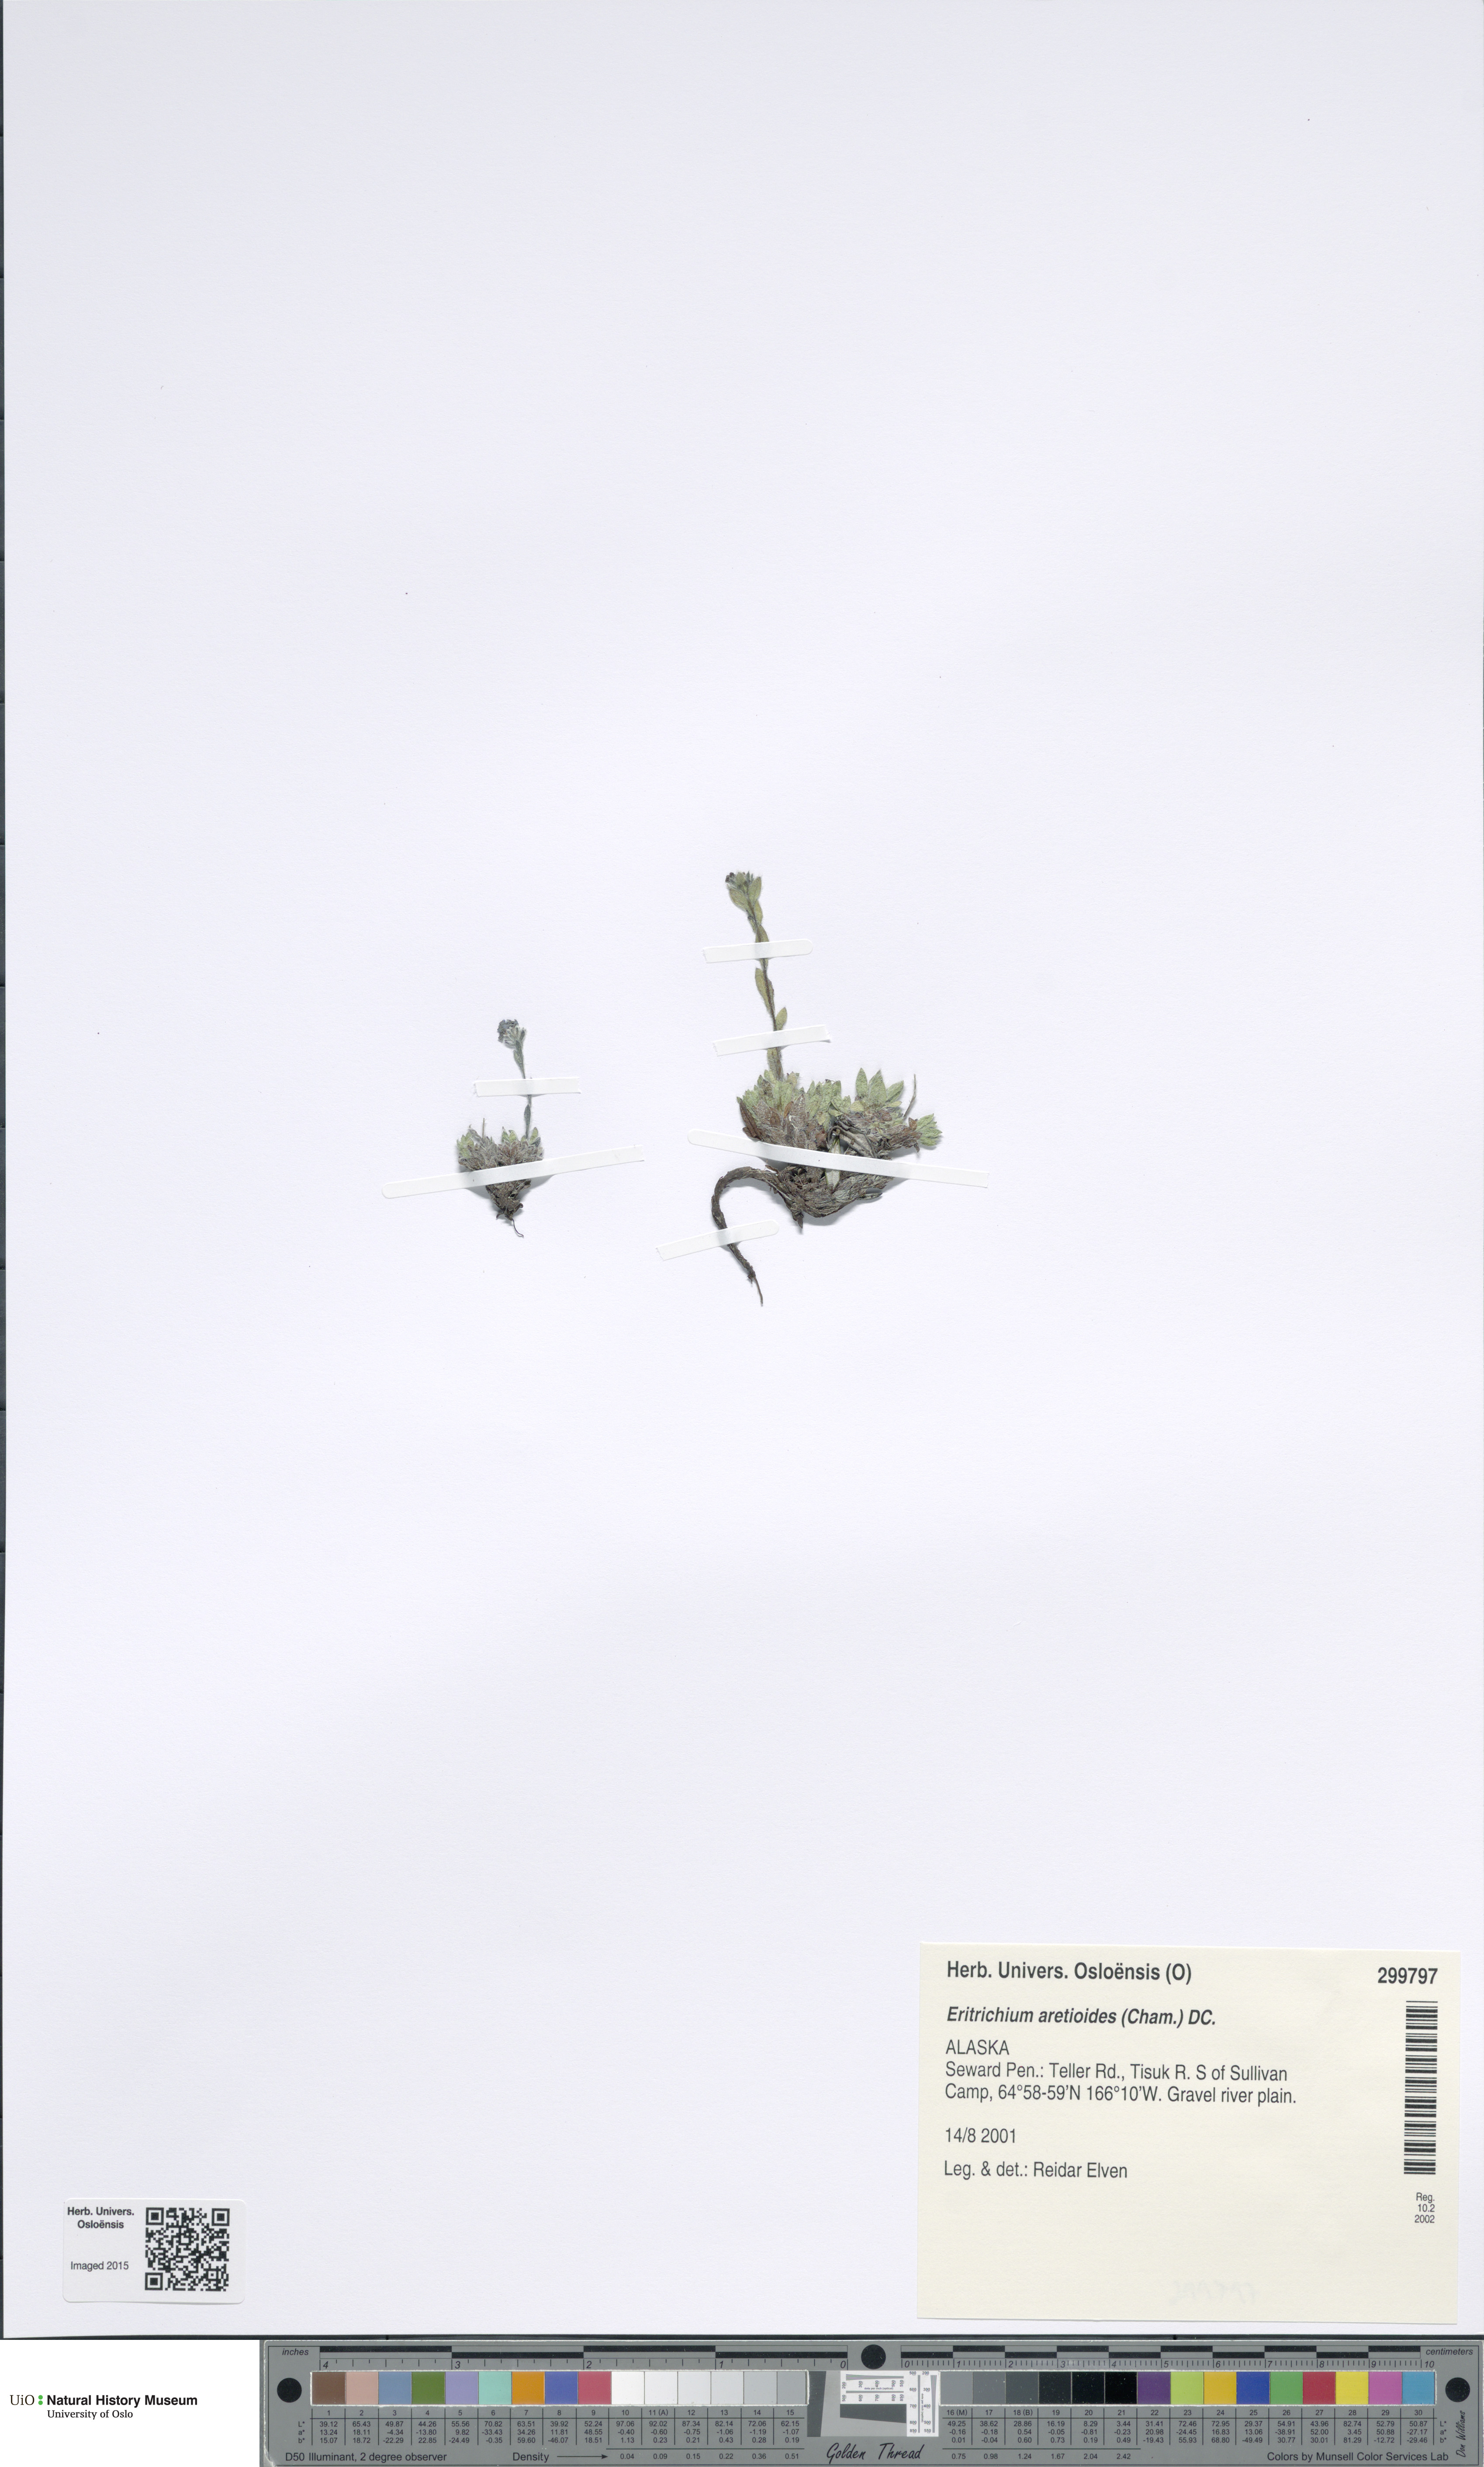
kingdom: Plantae
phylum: Tracheophyta
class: Magnoliopsida
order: Boraginales
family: Boraginaceae
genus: Eritrichium
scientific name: Eritrichium aretioides
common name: Arctic-alpine forget-me-not
